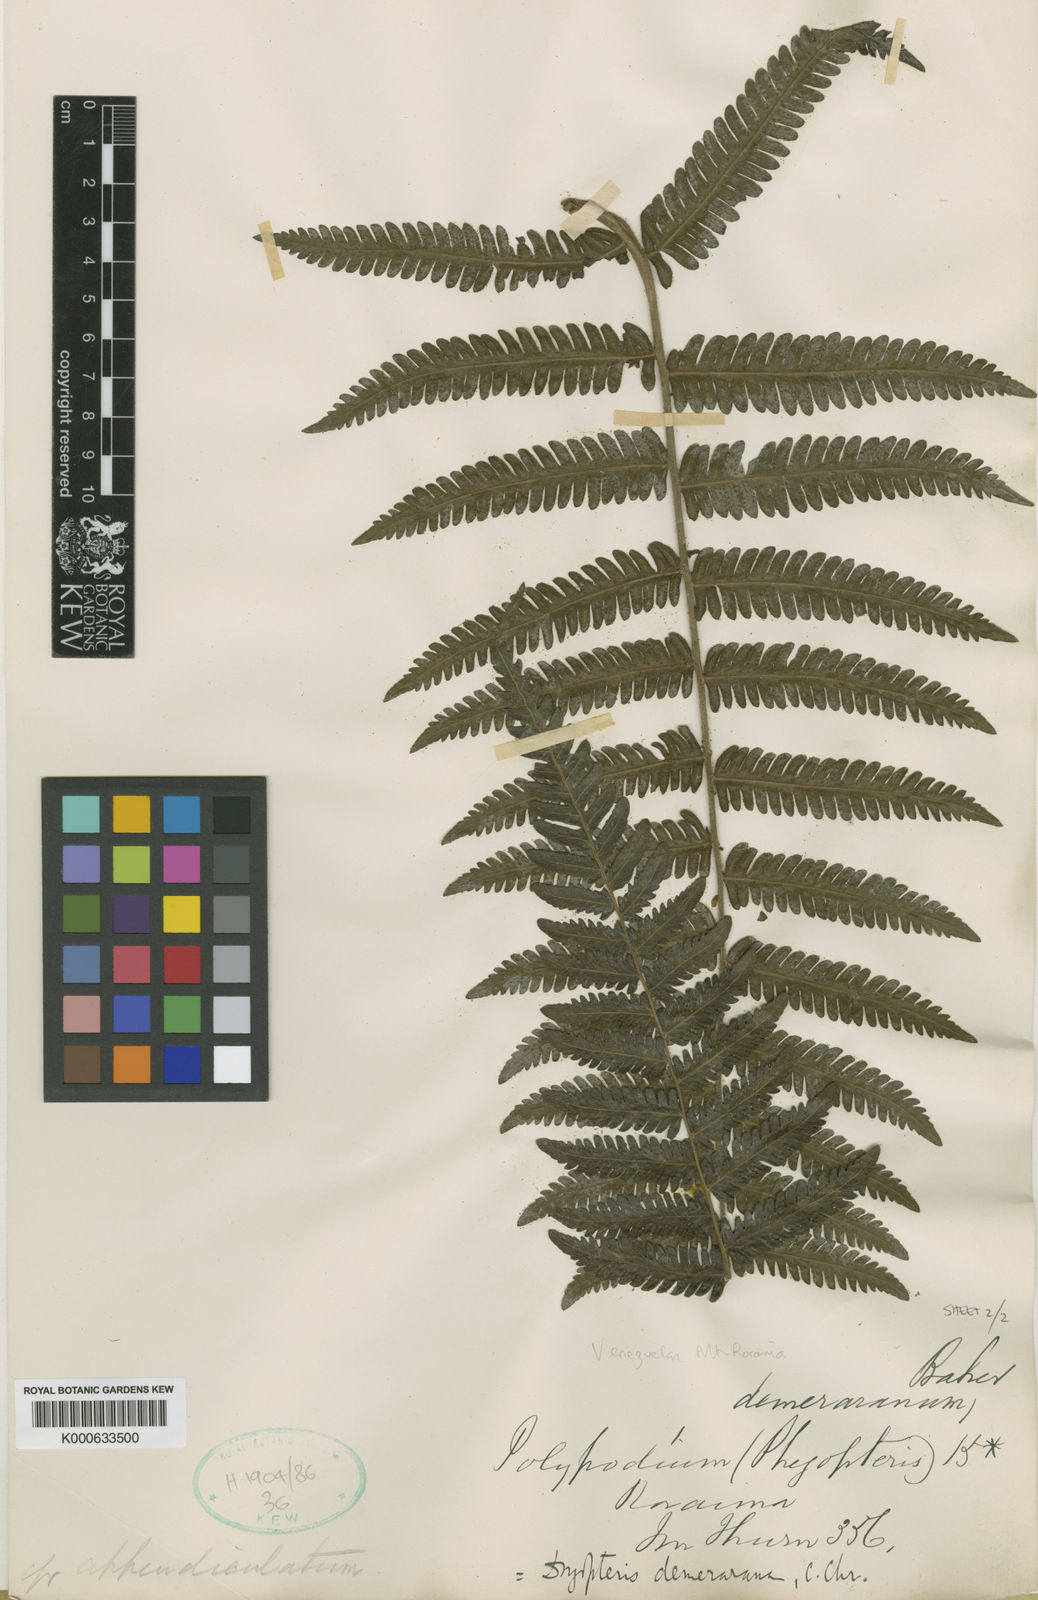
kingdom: Plantae
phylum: Tracheophyta
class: Polypodiopsida
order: Polypodiales
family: Thelypteridaceae
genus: Amauropelta
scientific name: Amauropelta demerarana
